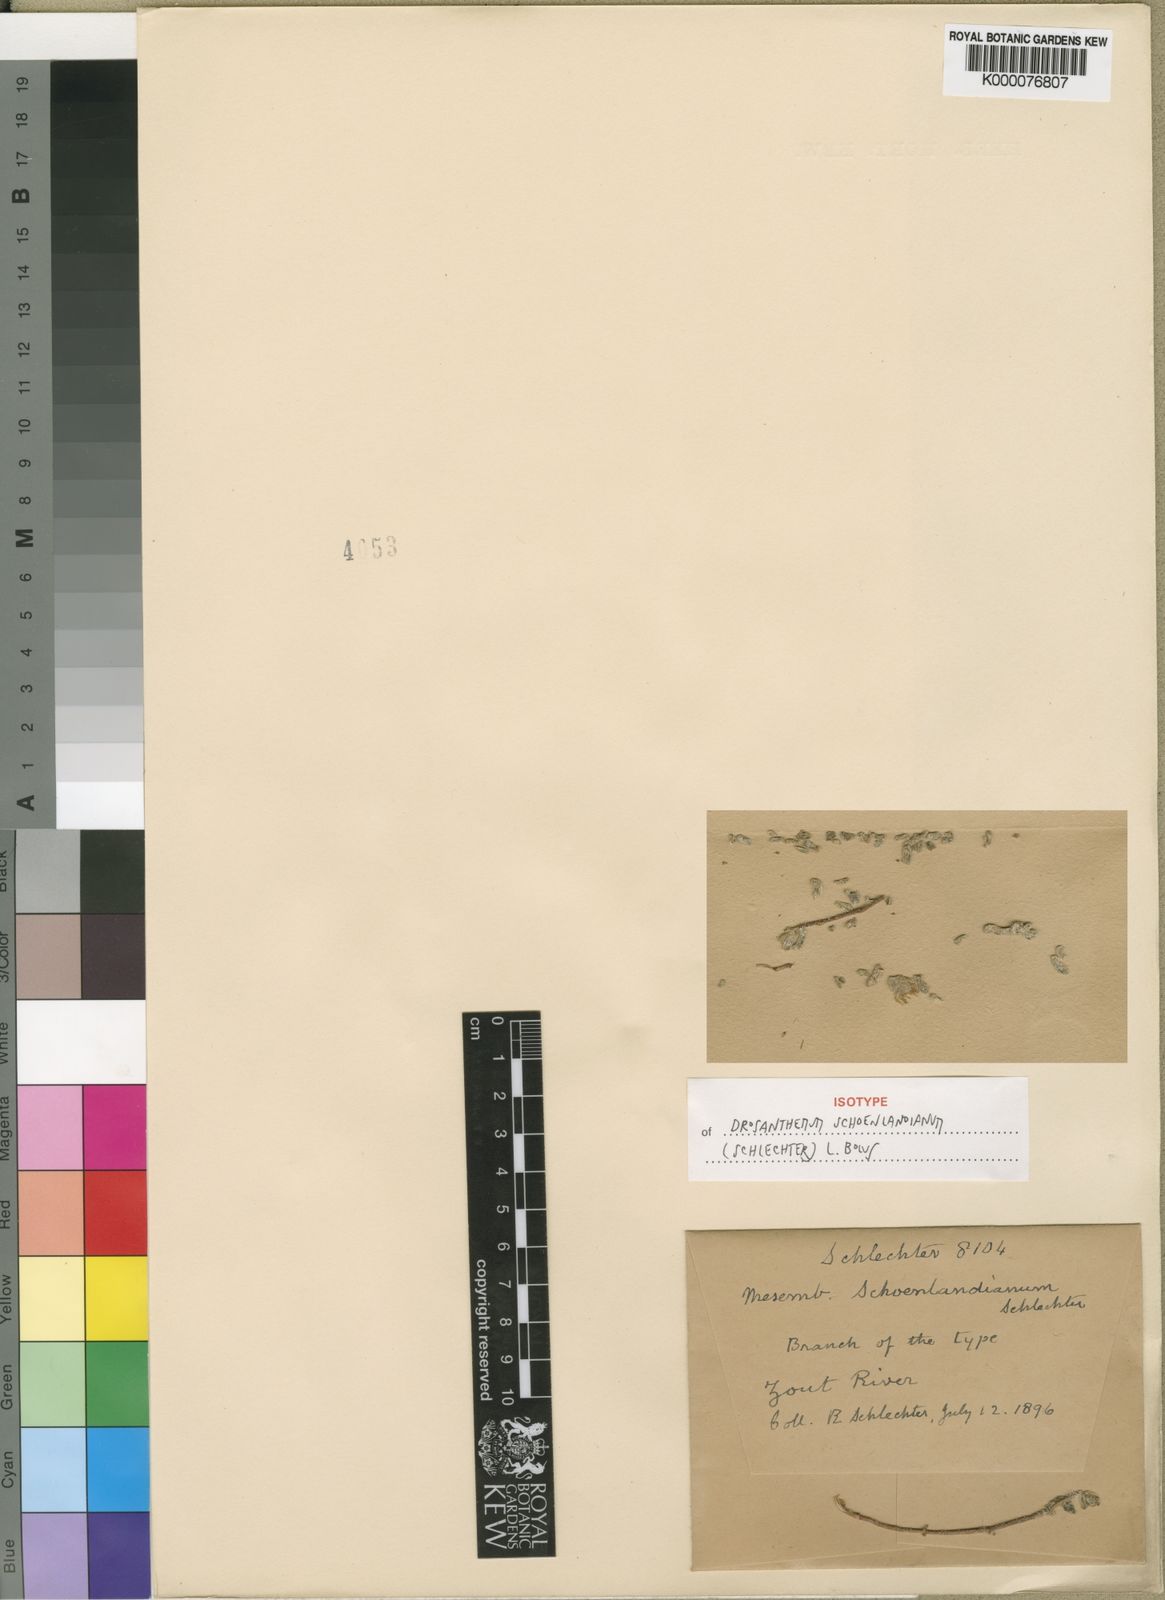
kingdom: Plantae
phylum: Tracheophyta
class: Magnoliopsida
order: Caryophyllales
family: Aizoaceae
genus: Drosanthemum
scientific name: Drosanthemum schoenlandianum
